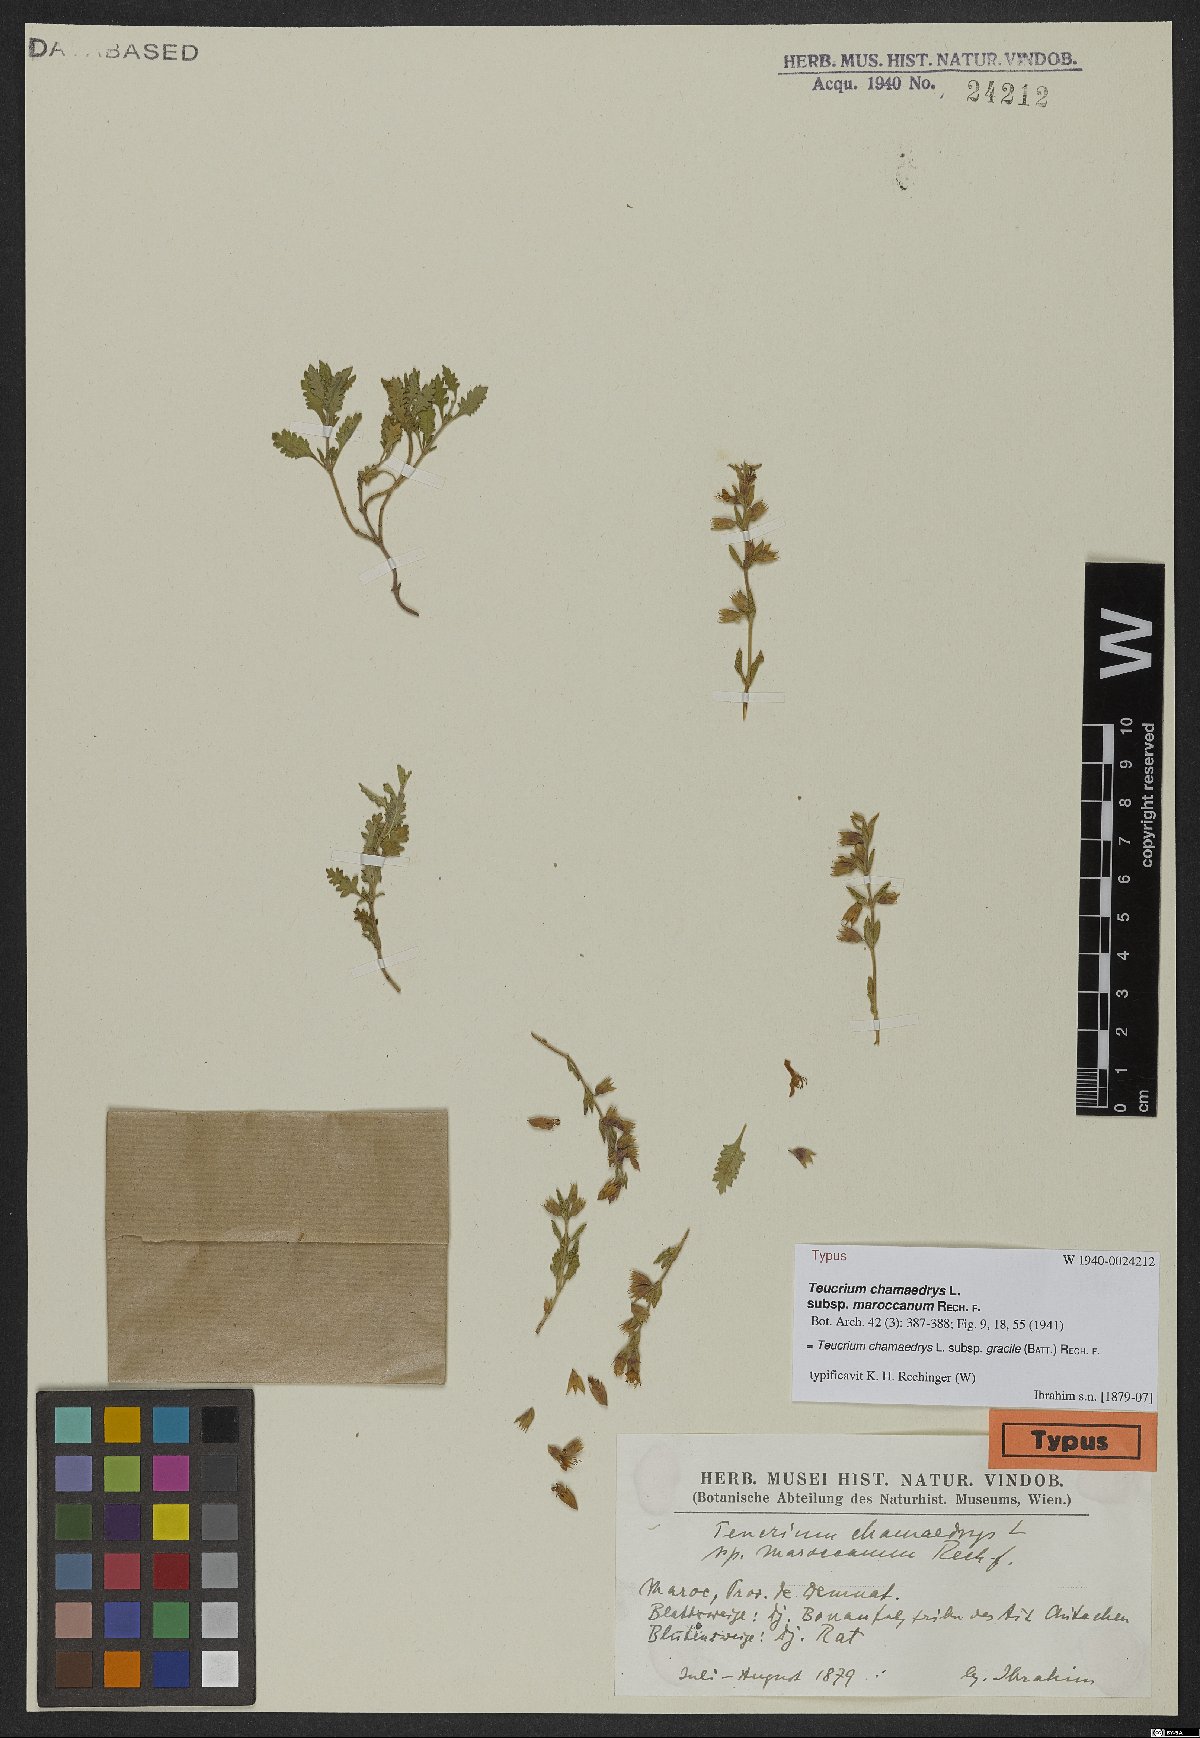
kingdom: Plantae
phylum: Tracheophyta
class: Magnoliopsida
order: Lamiales
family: Lamiaceae
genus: Teucrium
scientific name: Teucrium chamaedrys
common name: Wall germander
